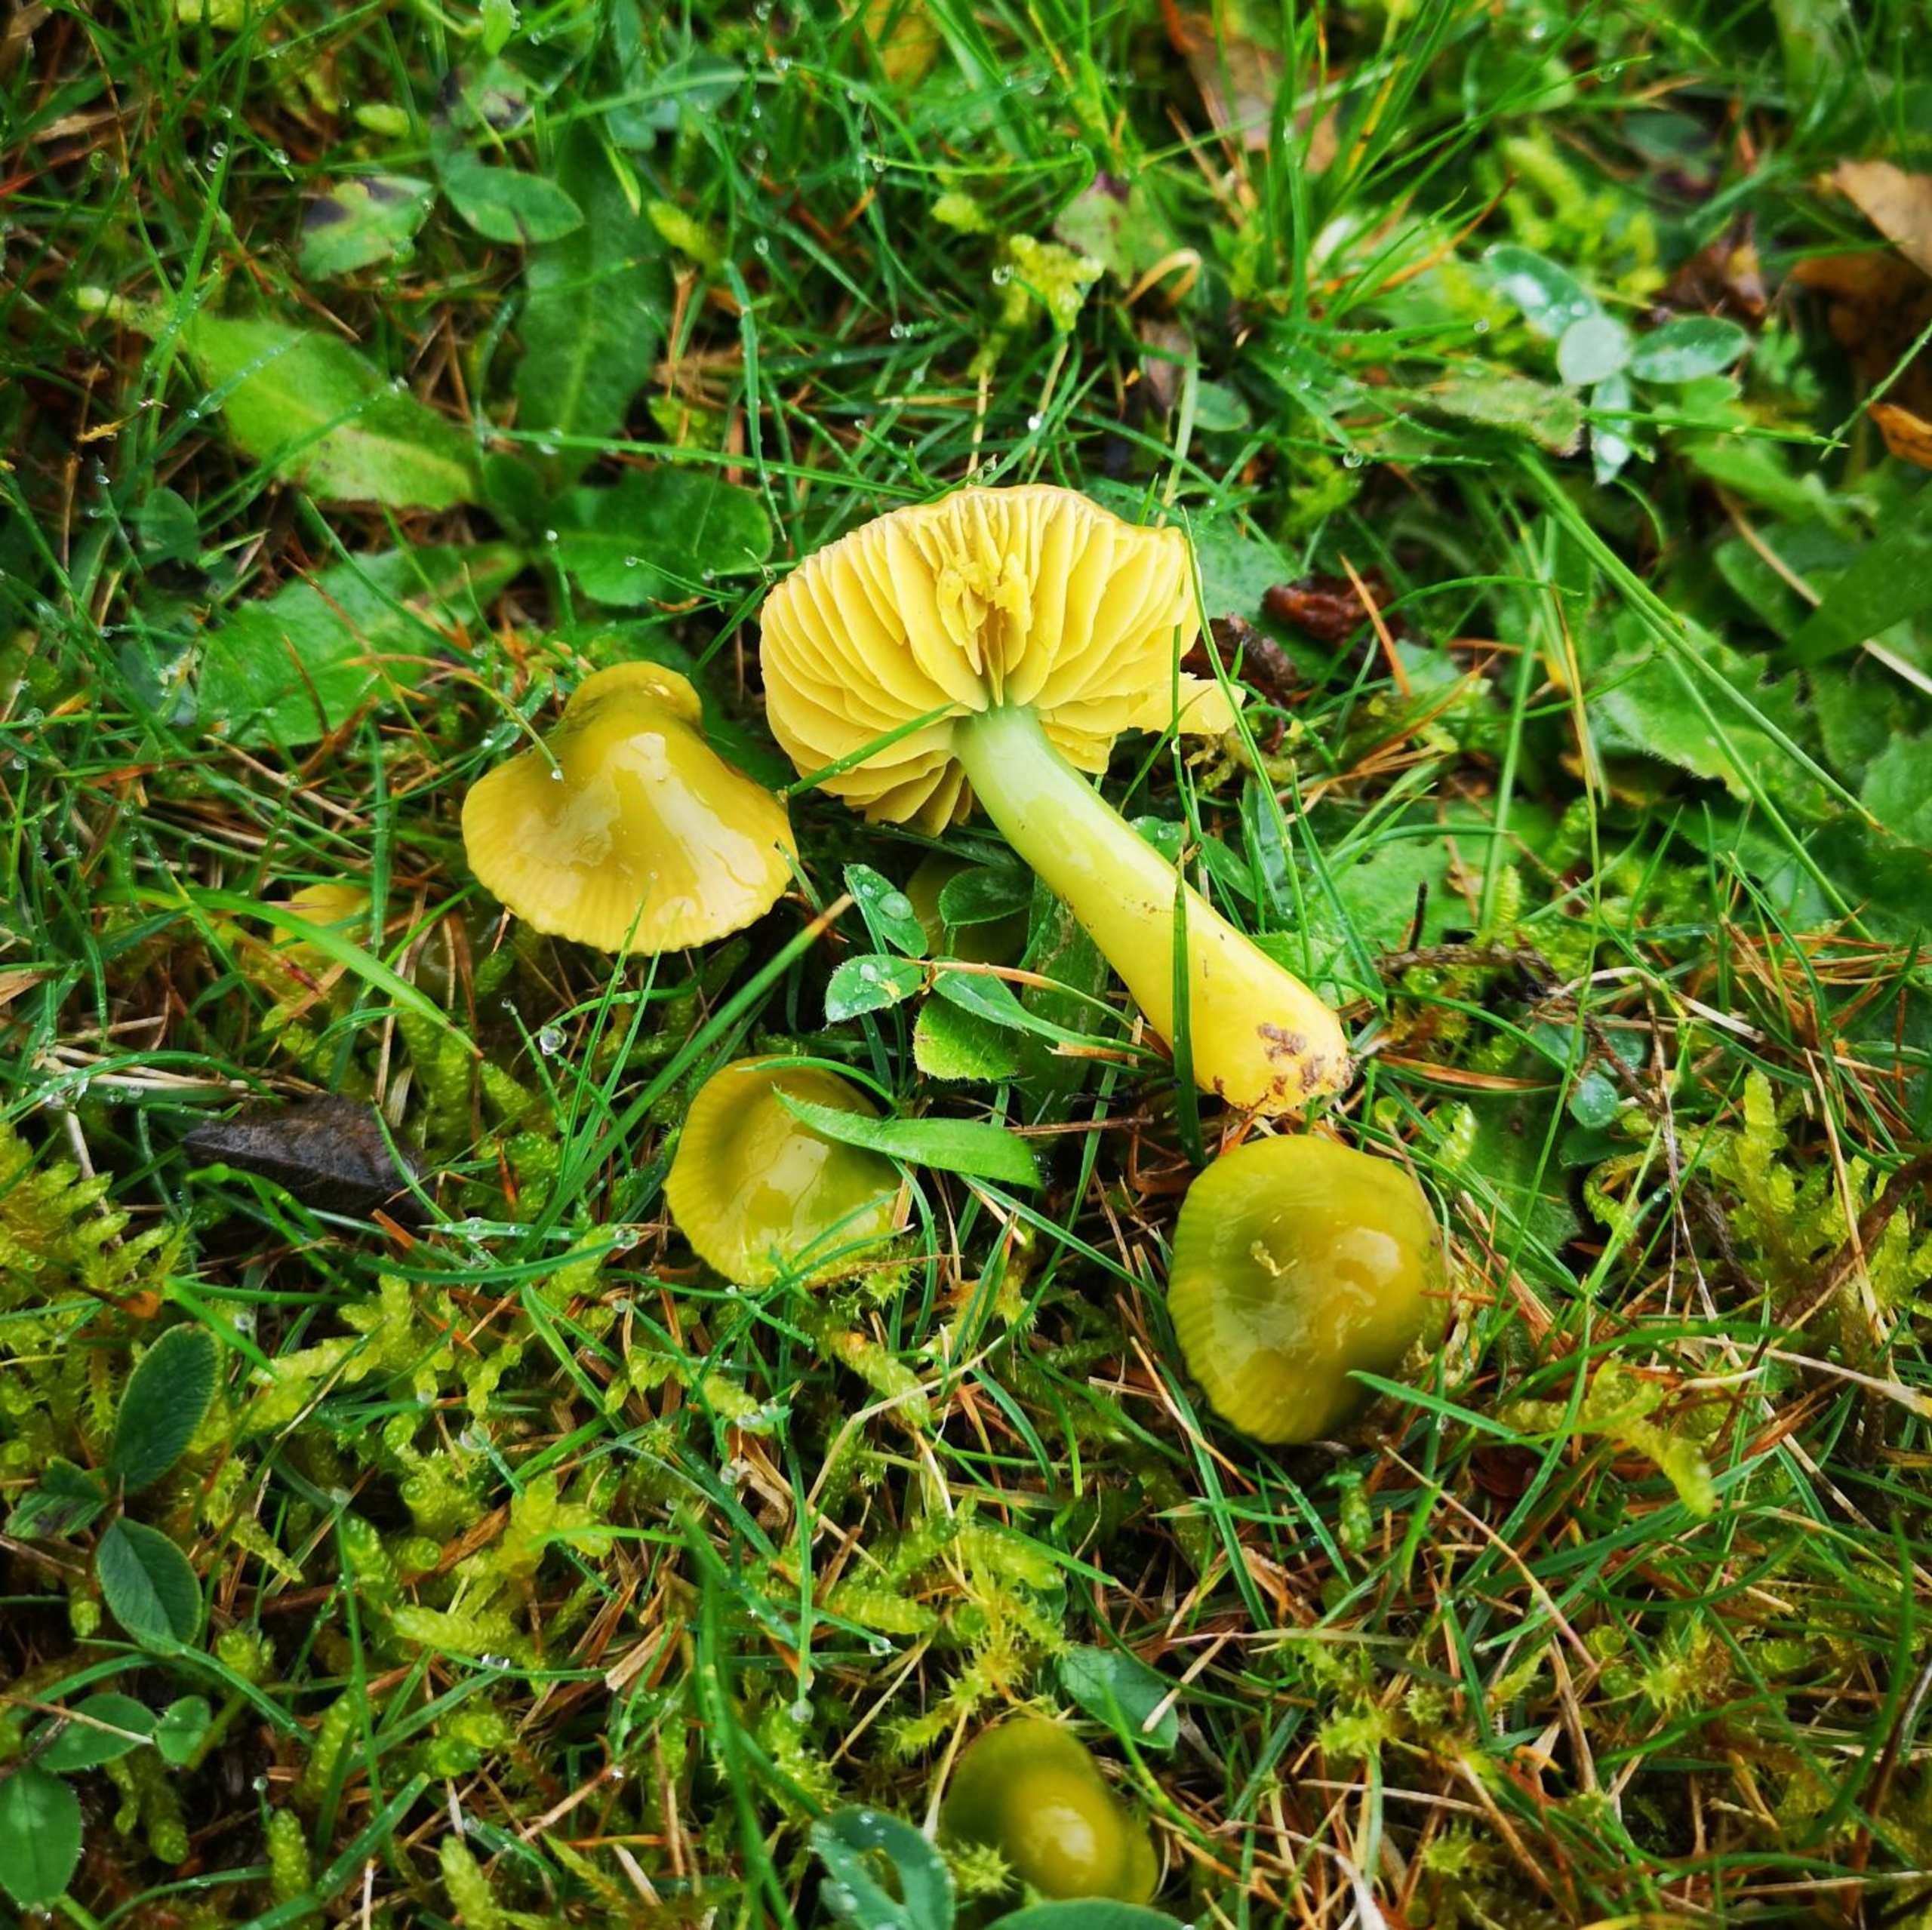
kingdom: Fungi
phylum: Basidiomycota
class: Agaricomycetes
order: Agaricales
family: Hygrophoraceae
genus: Gliophorus
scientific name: Gliophorus psittacinus
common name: Papegøje-vokshat
